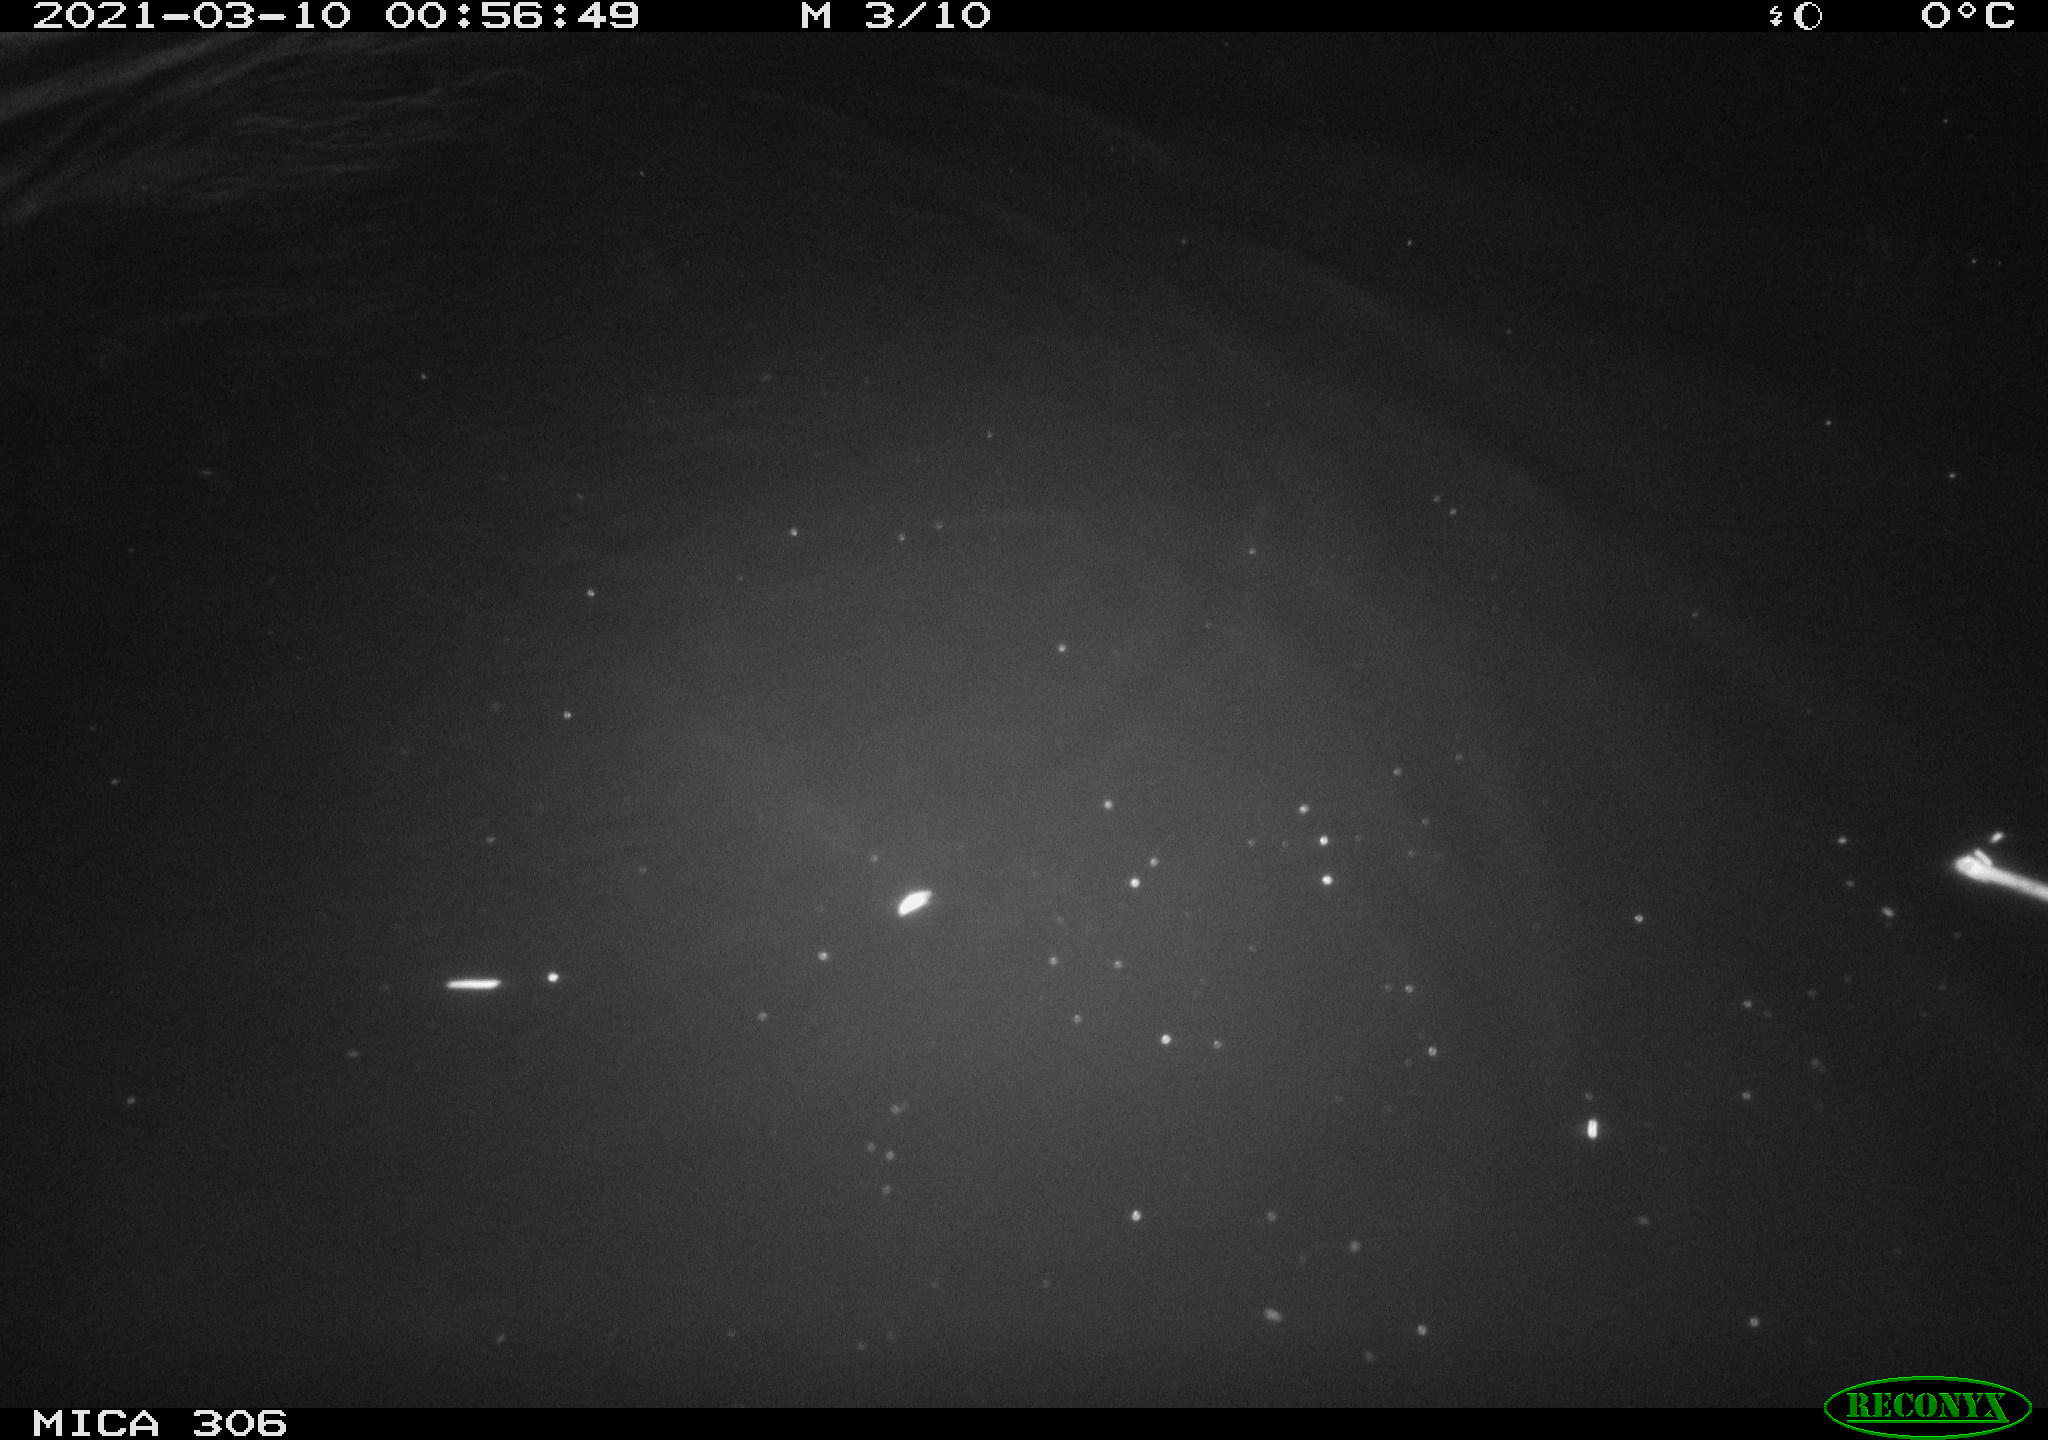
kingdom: Animalia
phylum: Chordata
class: Mammalia
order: Rodentia
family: Cricetidae
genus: Ondatra
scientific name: Ondatra zibethicus
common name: Muskrat
